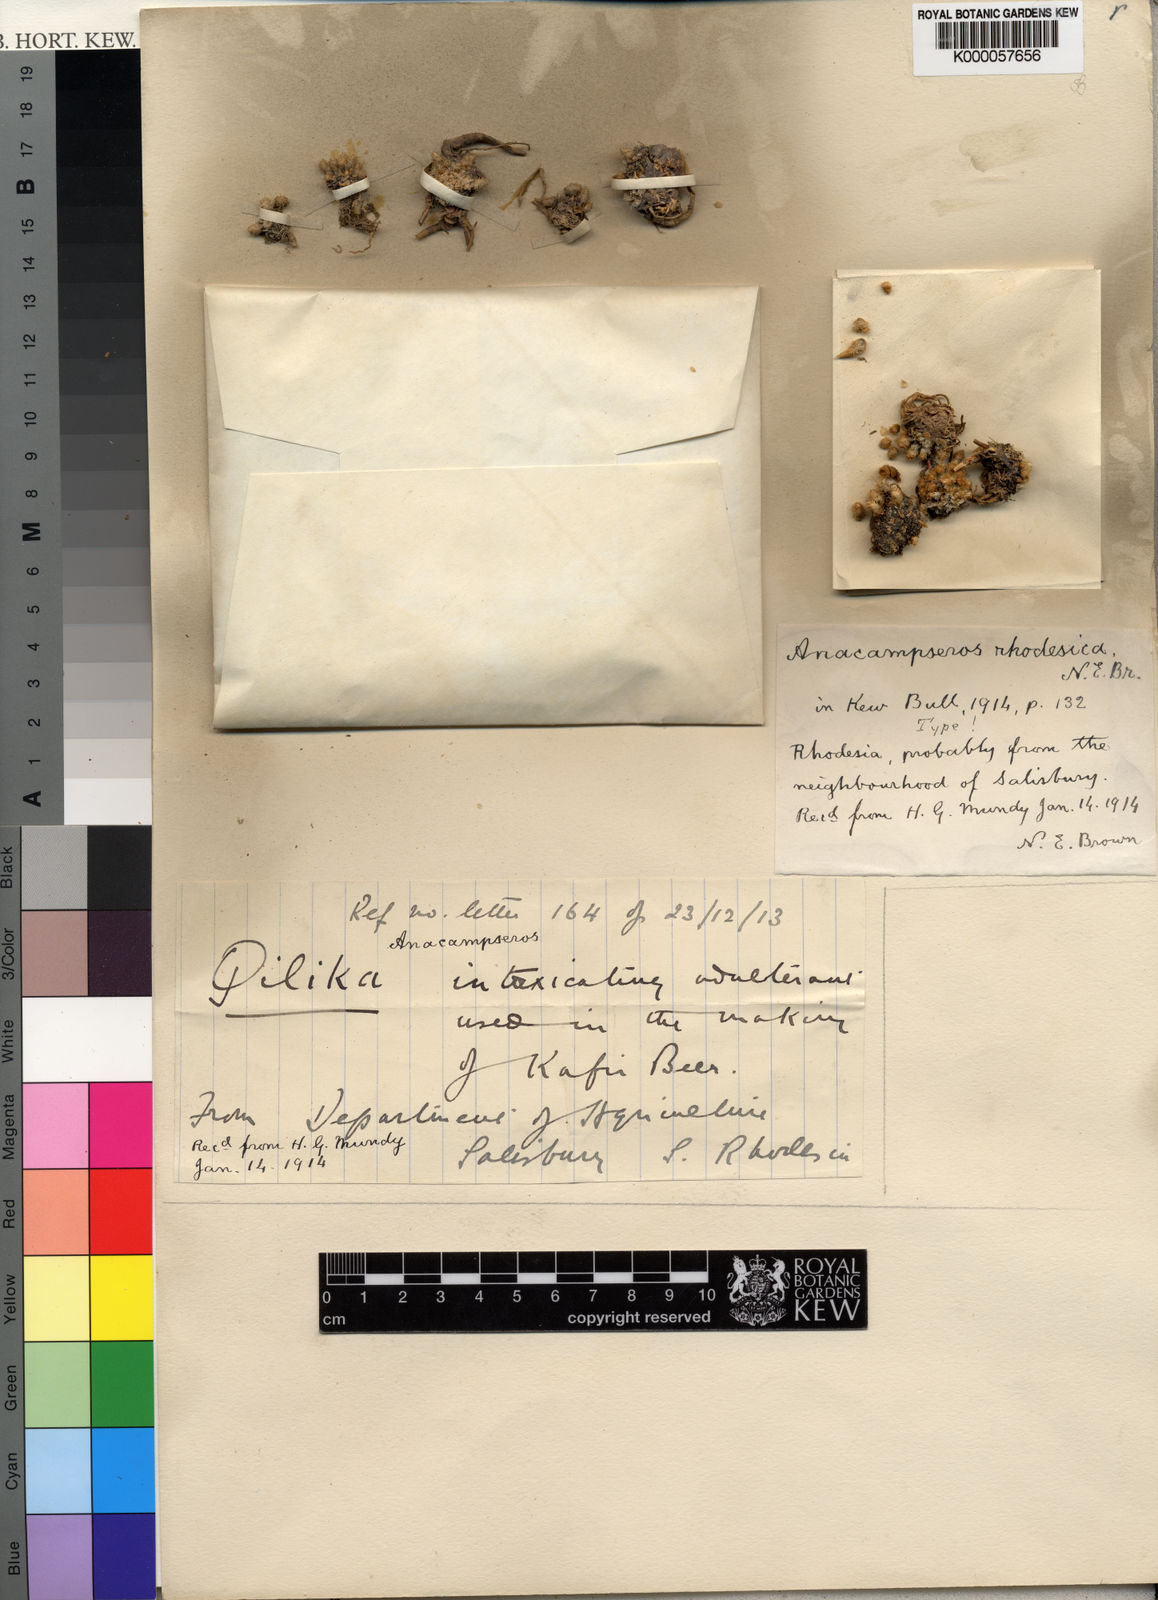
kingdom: Plantae
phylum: Tracheophyta
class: Magnoliopsida
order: Caryophyllales
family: Anacampserotaceae
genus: Avonia
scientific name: Avonia rhodesica
